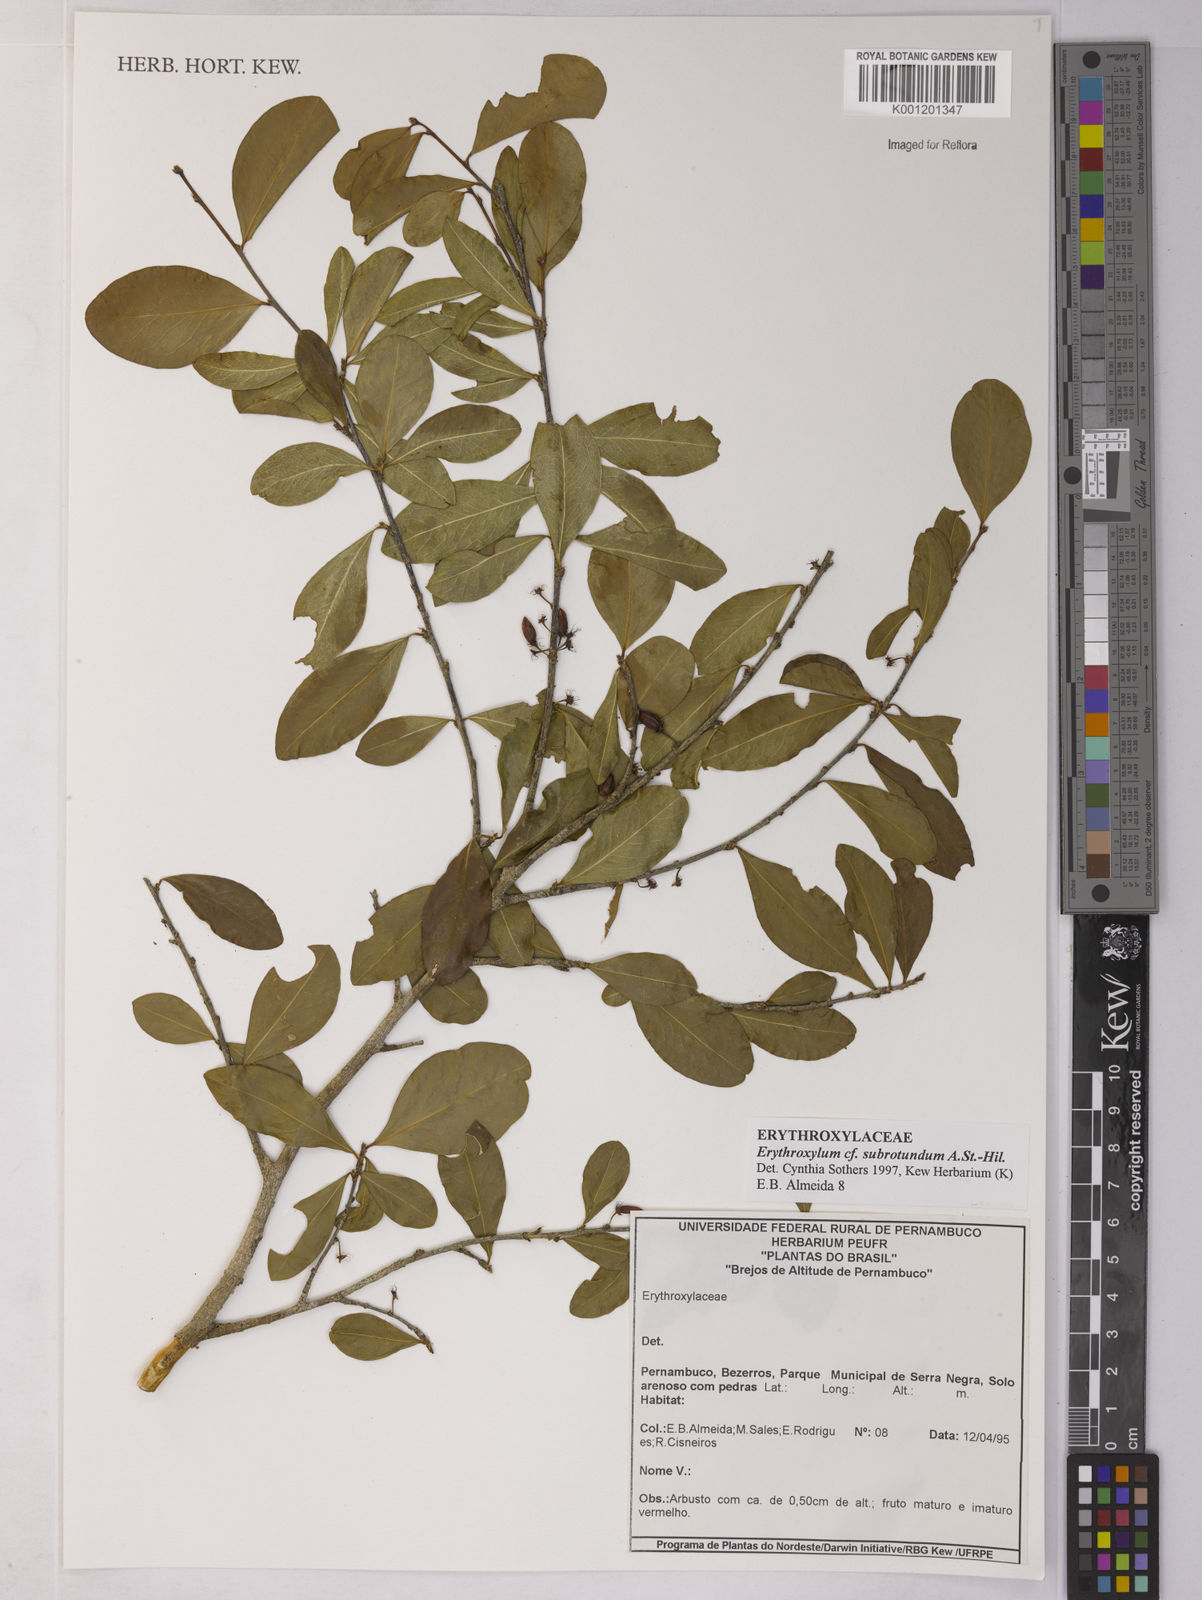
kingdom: Plantae
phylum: Tracheophyta
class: Magnoliopsida
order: Malpighiales
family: Erythroxylaceae
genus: Erythroxylum
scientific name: Erythroxylum subrotundum
